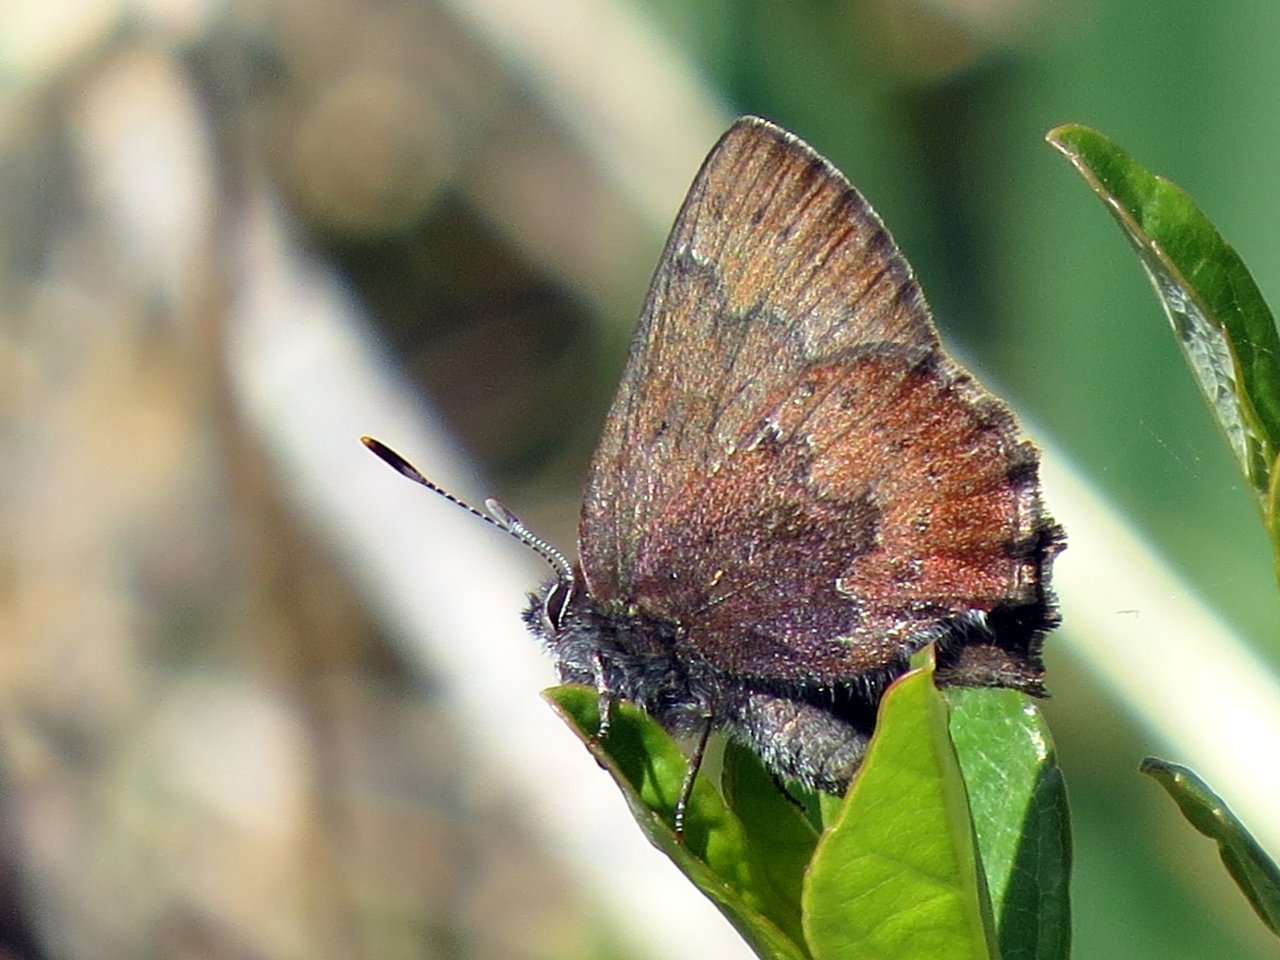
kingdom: Animalia
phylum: Arthropoda
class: Insecta
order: Lepidoptera
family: Lycaenidae
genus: Incisalia
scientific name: Incisalia irioides
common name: Brown Elfin
